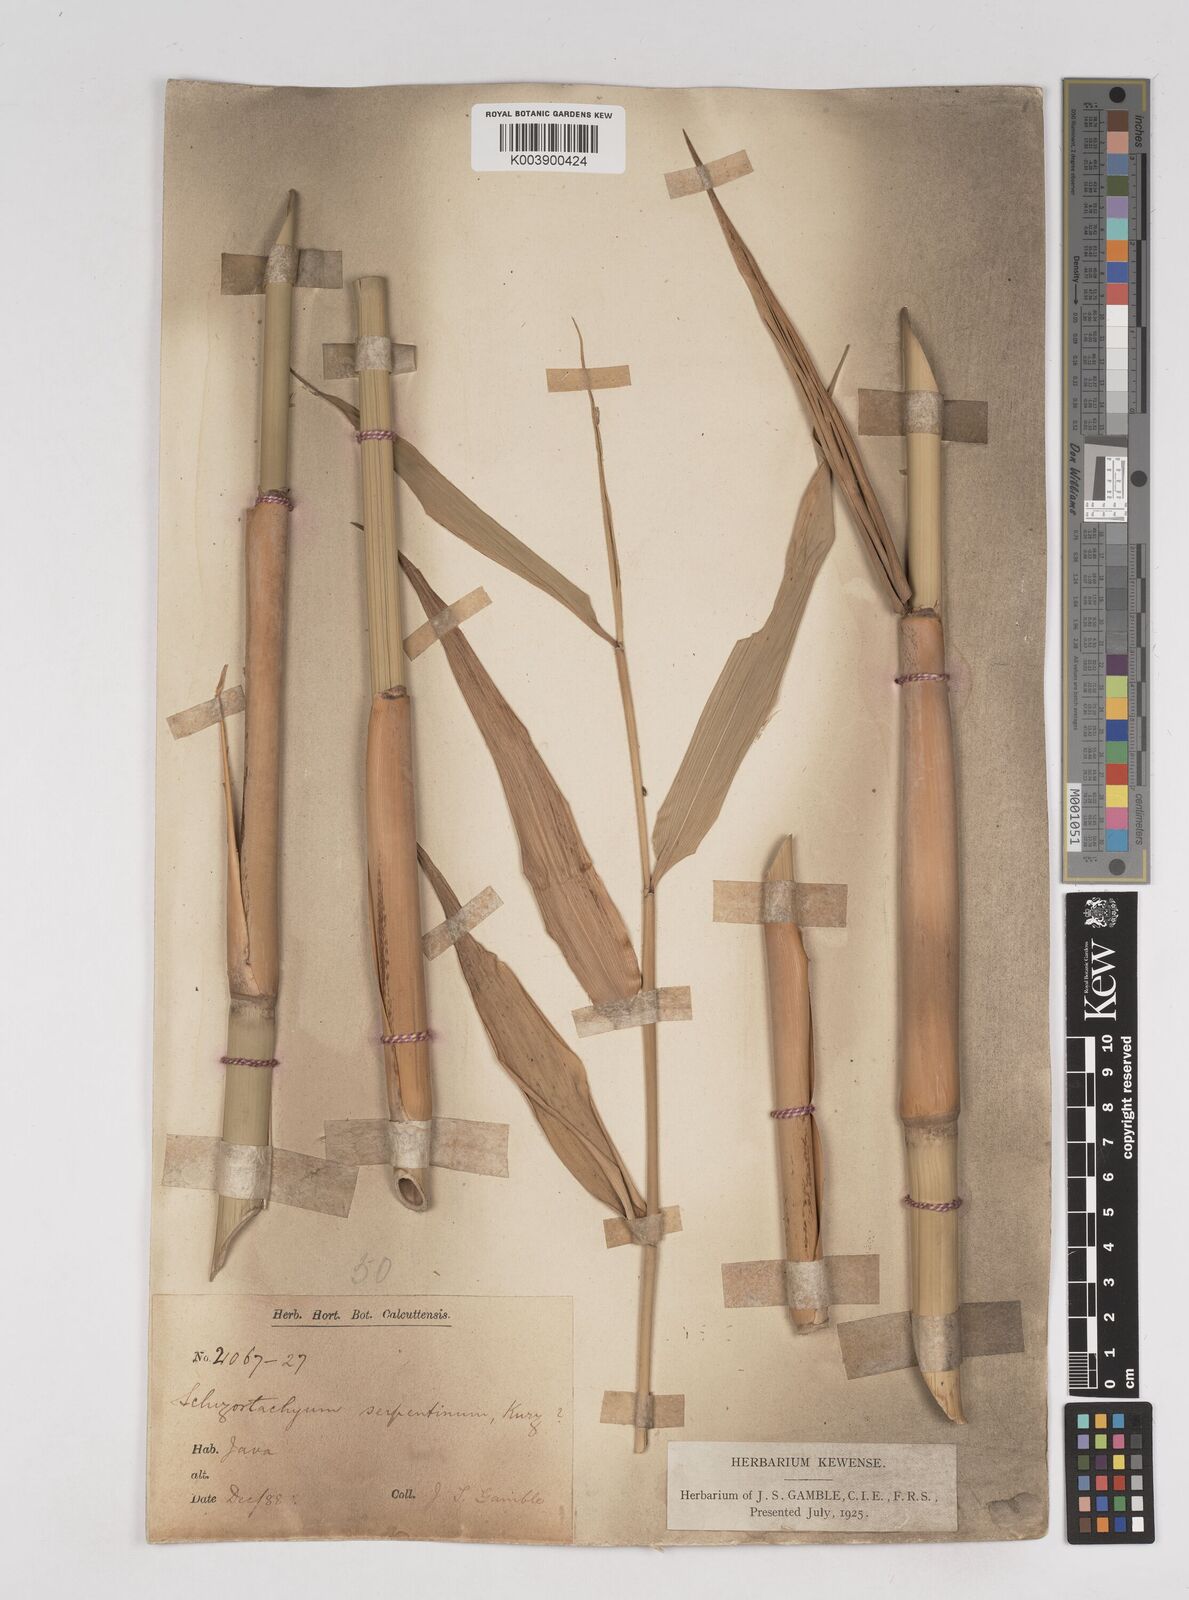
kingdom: Plantae
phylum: Tracheophyta
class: Liliopsida
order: Poales
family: Poaceae
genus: Gigantochloa
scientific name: Gigantochloa nigrociliata
